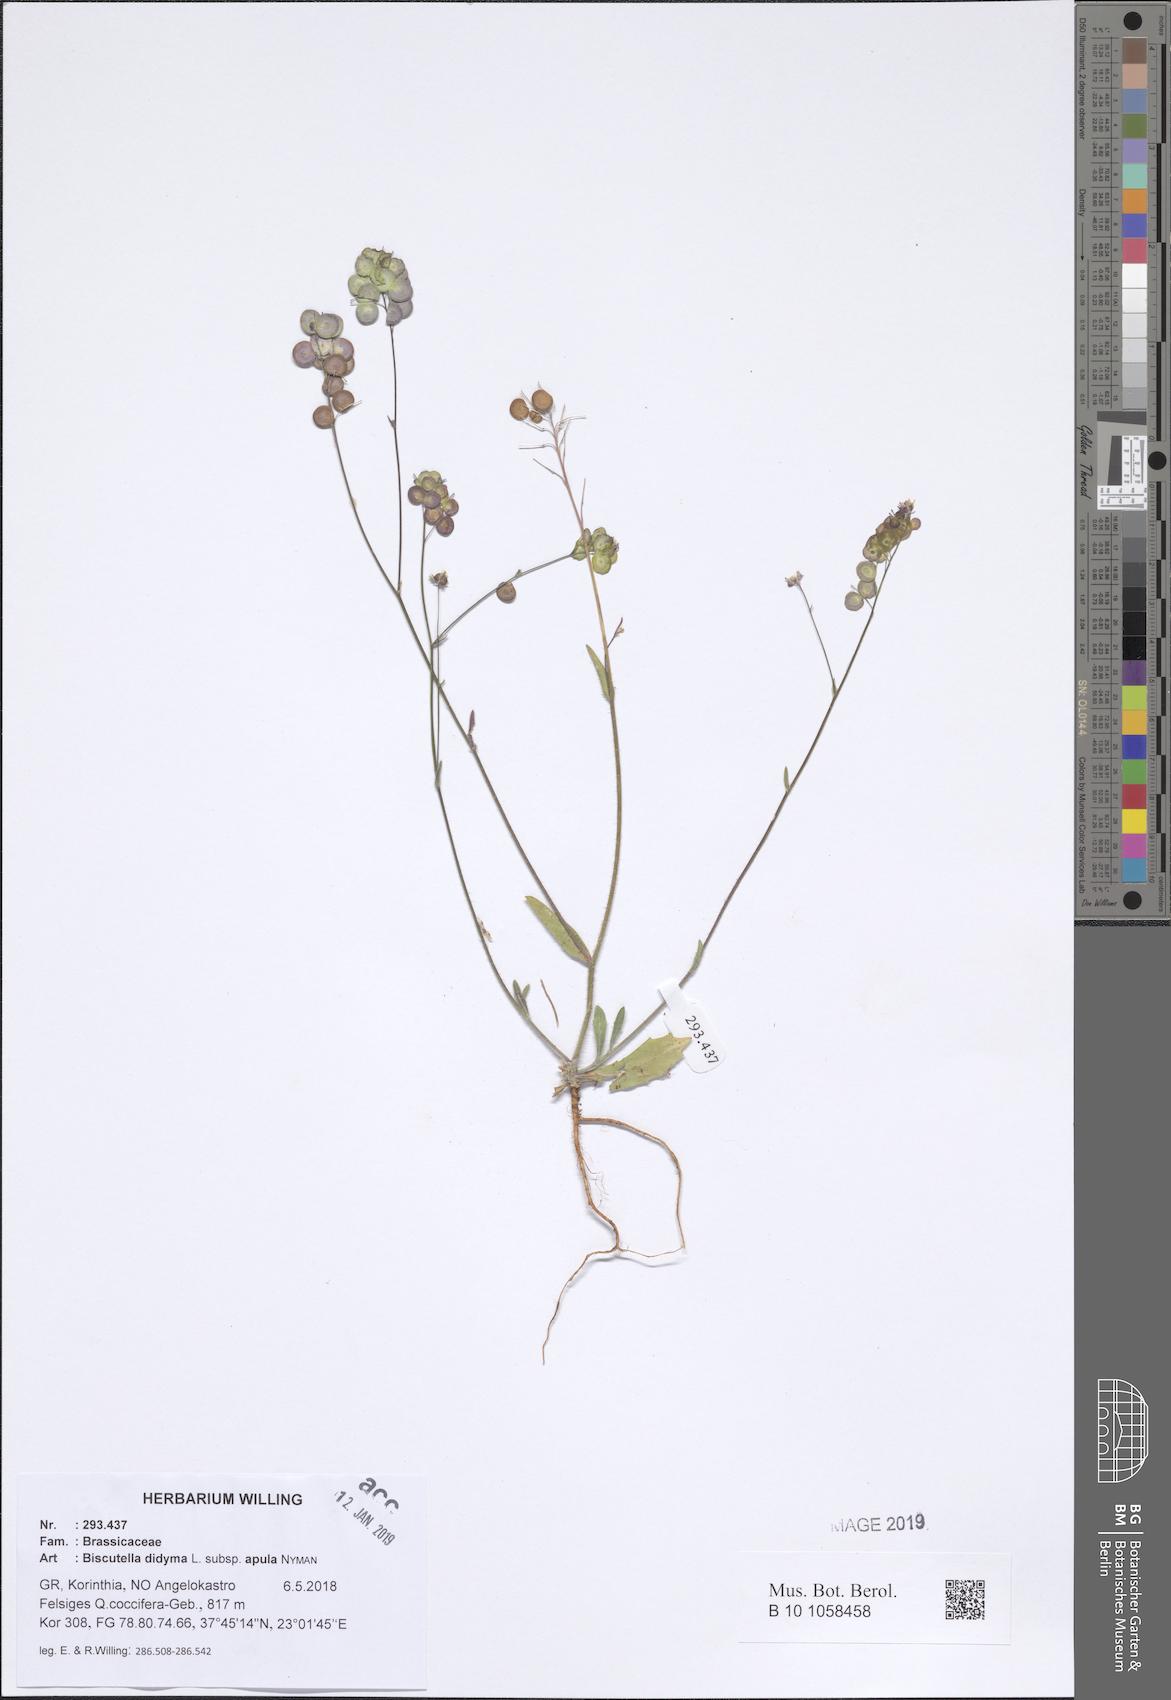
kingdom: Plantae
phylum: Tracheophyta
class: Magnoliopsida
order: Brassicales
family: Brassicaceae
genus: Biscutella
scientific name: Biscutella didyma
